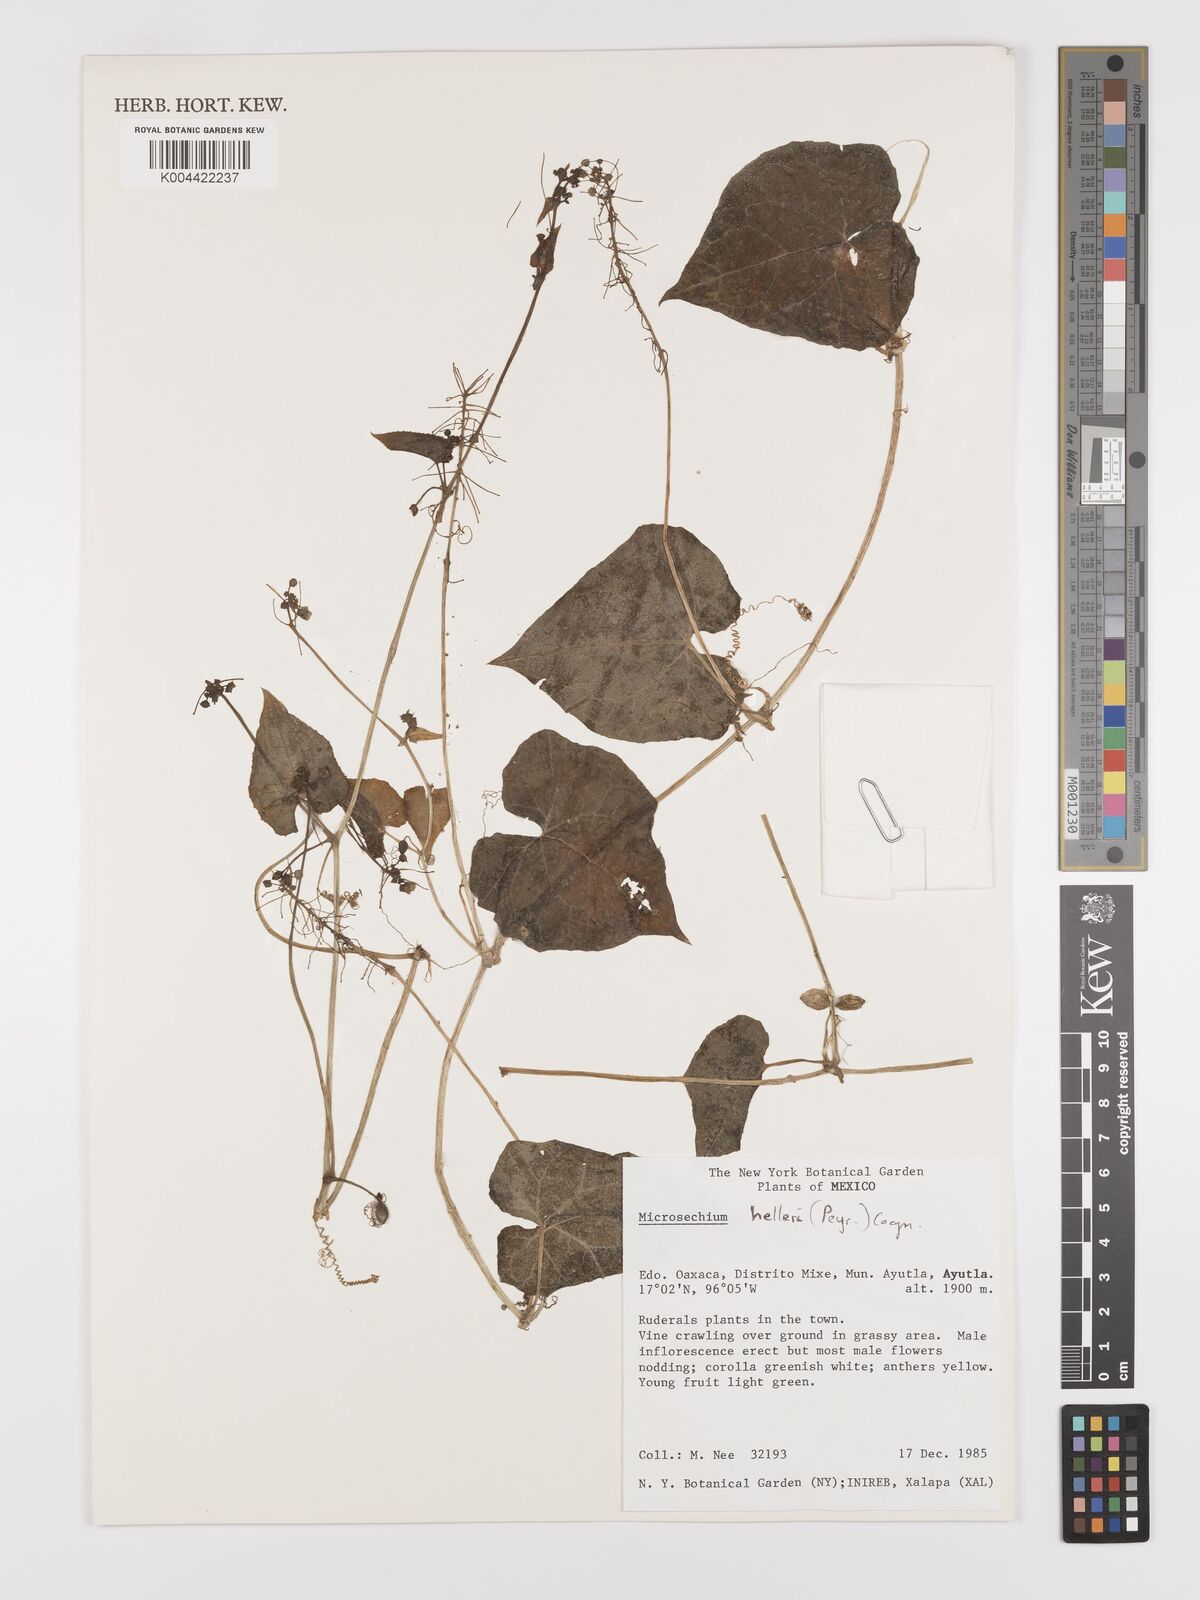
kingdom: Plantae
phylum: Tracheophyta
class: Magnoliopsida
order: Cucurbitales
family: Cucurbitaceae
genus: Microsechium
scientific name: Microsechium palmatum
